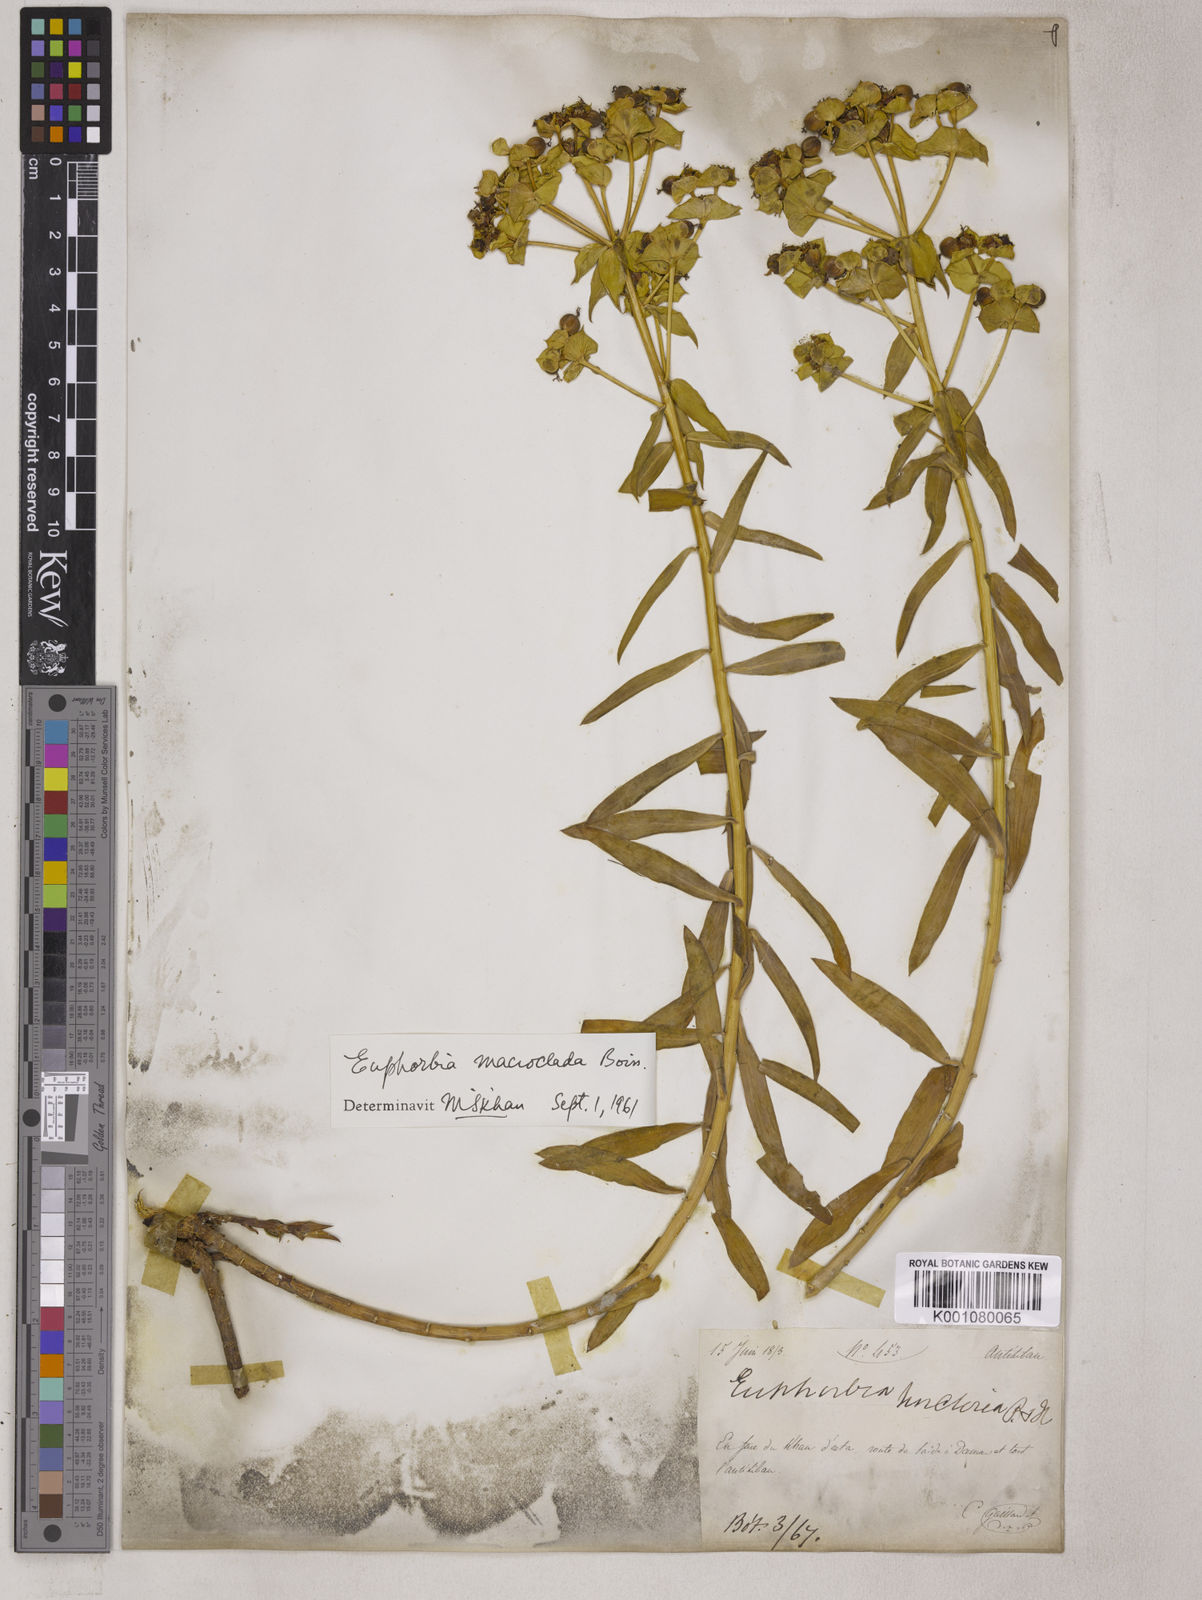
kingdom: Plantae
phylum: Tracheophyta
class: Magnoliopsida
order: Malpighiales
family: Euphorbiaceae
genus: Euphorbia
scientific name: Euphorbia macroclada
